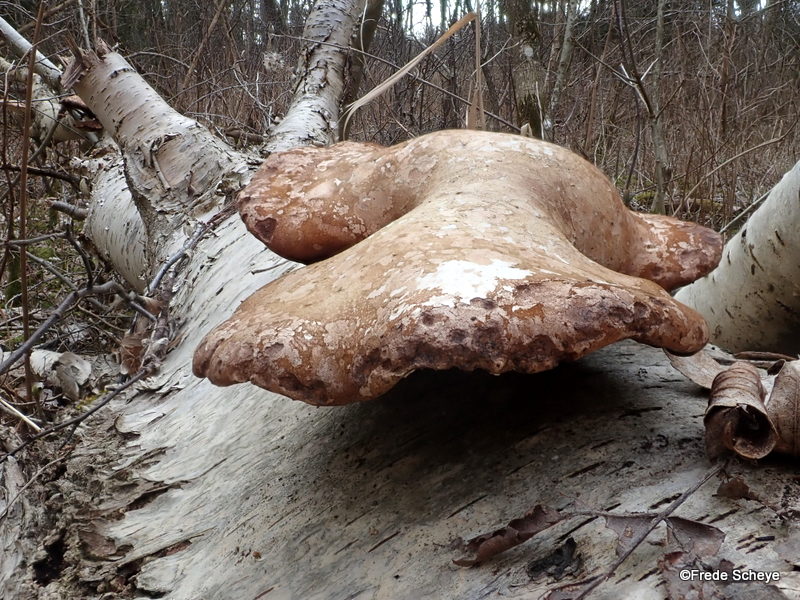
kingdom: Fungi
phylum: Basidiomycota
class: Agaricomycetes
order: Polyporales
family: Fomitopsidaceae
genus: Fomitopsis
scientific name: Fomitopsis betulina
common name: birkeporesvamp
